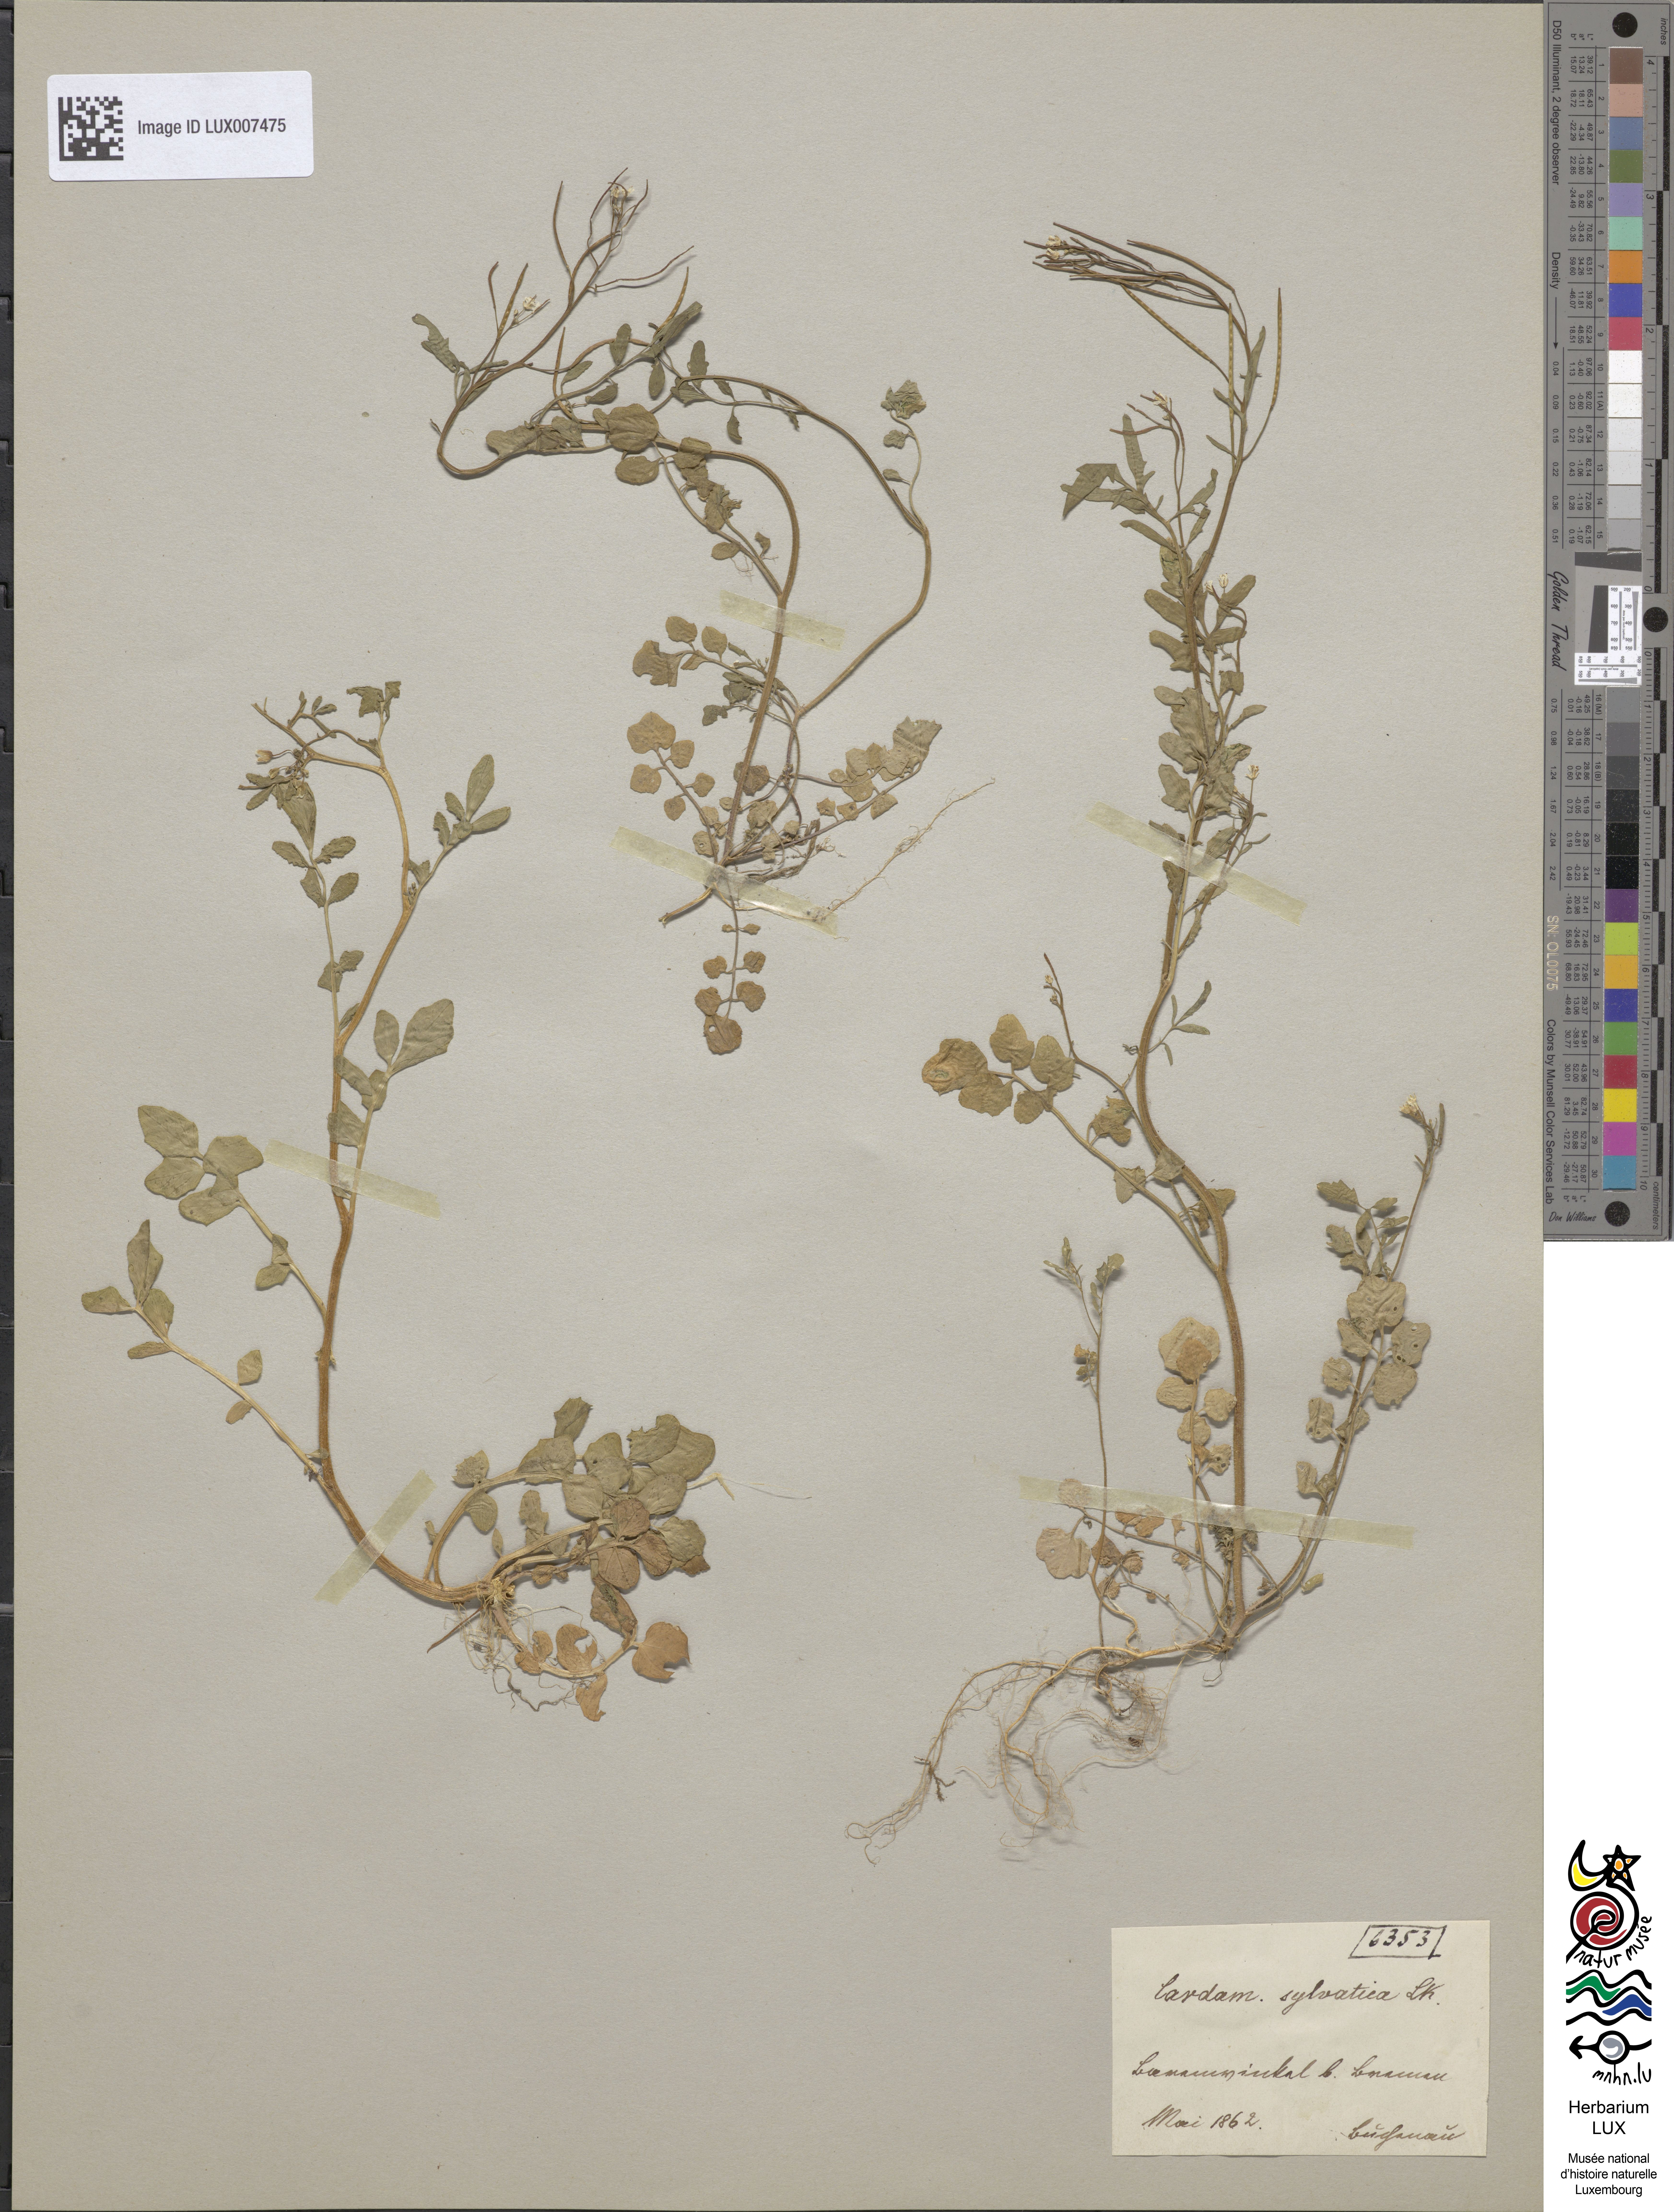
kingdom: Plantae
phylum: Tracheophyta
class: Magnoliopsida
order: Brassicales
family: Brassicaceae
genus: Cardamine
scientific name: Cardamine flexuosa
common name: Woodland bittercress
